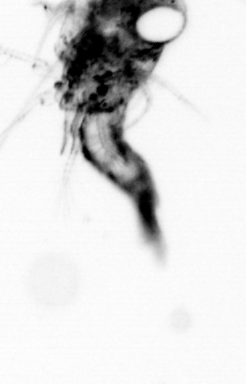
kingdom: Animalia
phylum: Arthropoda
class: Malacostraca
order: Decapoda
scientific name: Decapoda
